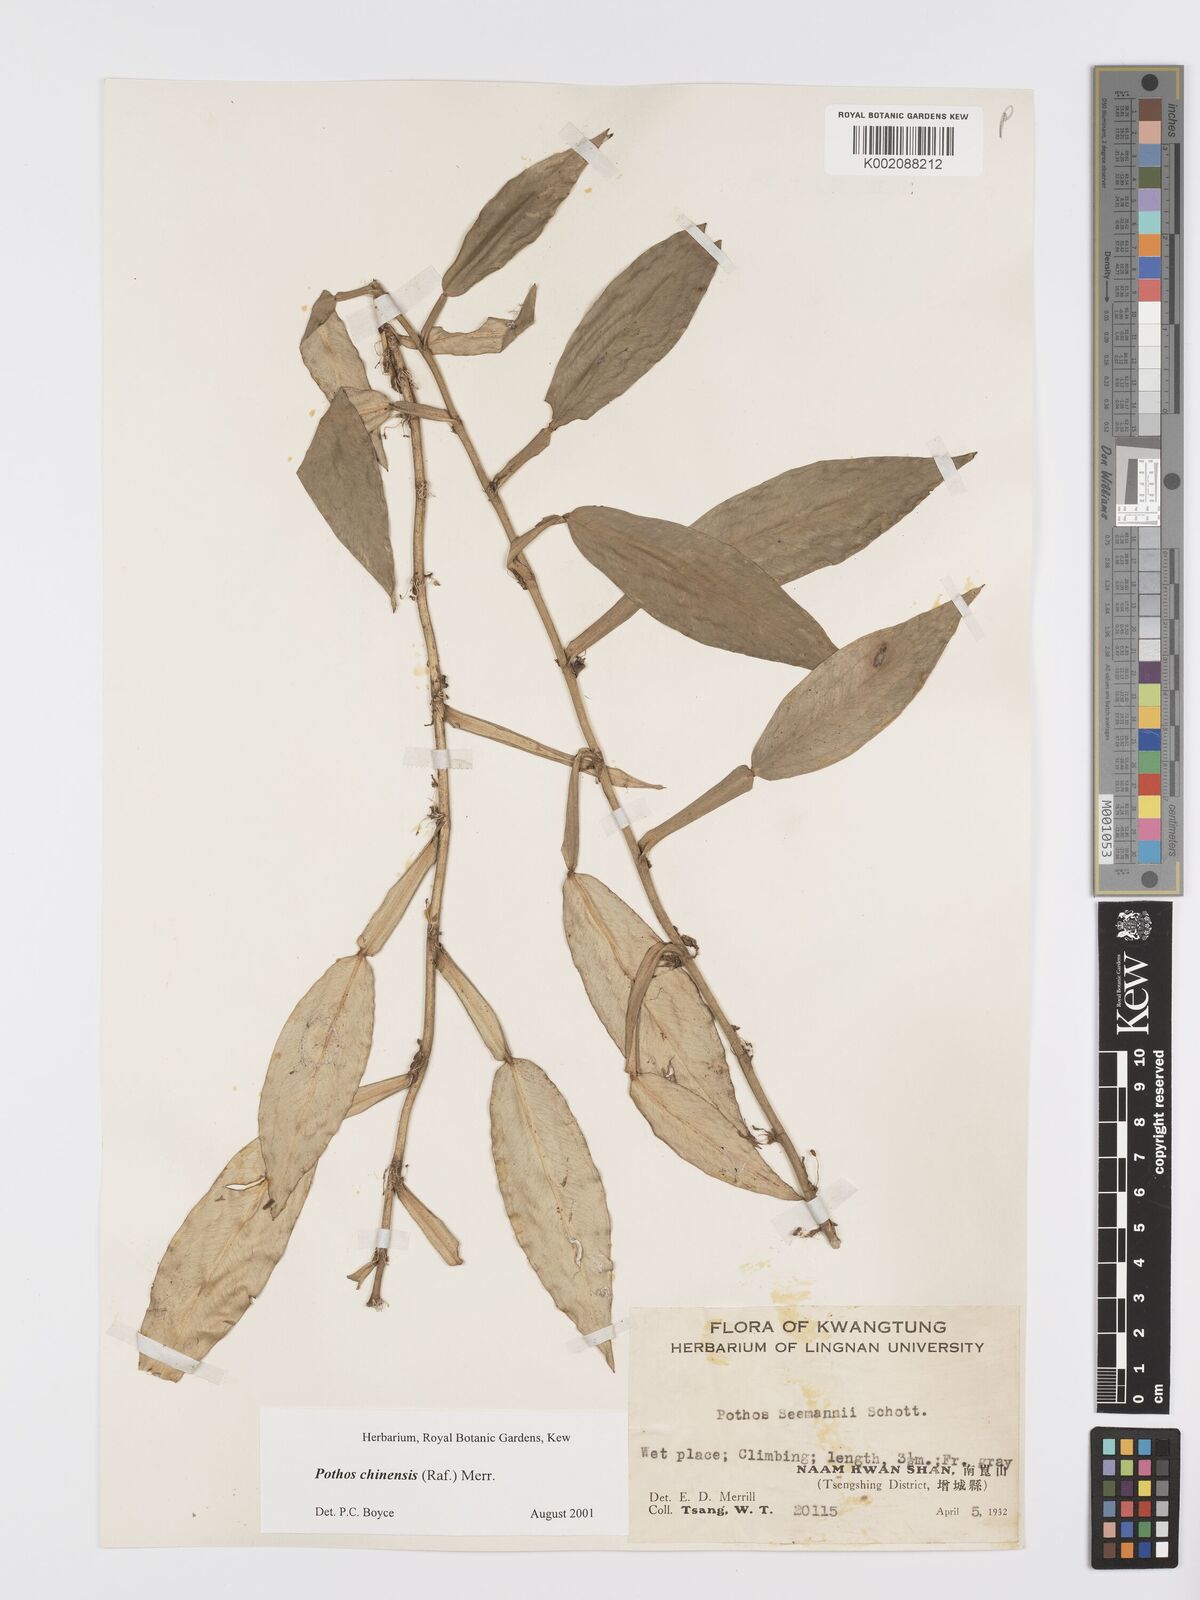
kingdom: Plantae
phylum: Tracheophyta
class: Liliopsida
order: Alismatales
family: Araceae
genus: Pothos
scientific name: Pothos chinensis
